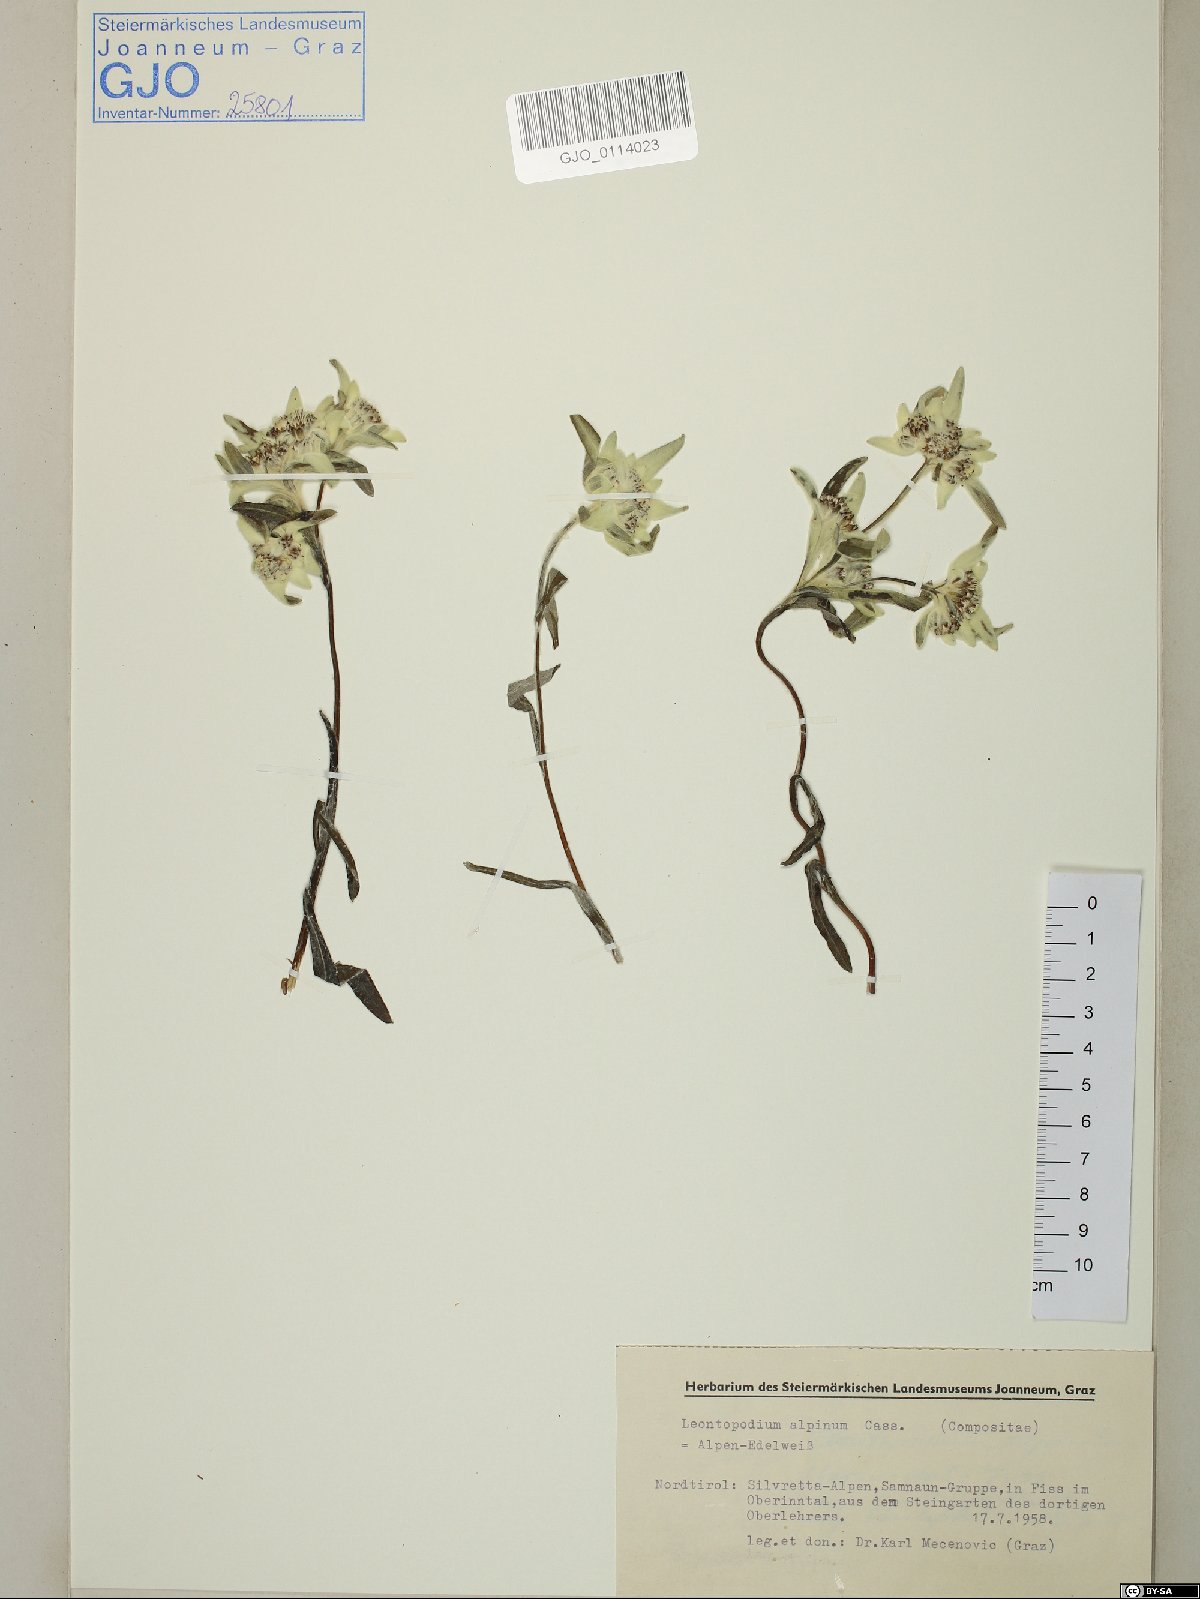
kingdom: Plantae
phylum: Tracheophyta
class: Magnoliopsida
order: Asterales
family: Asteraceae
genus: Leontopodium
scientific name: Leontopodium nivale
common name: Edelweiss
